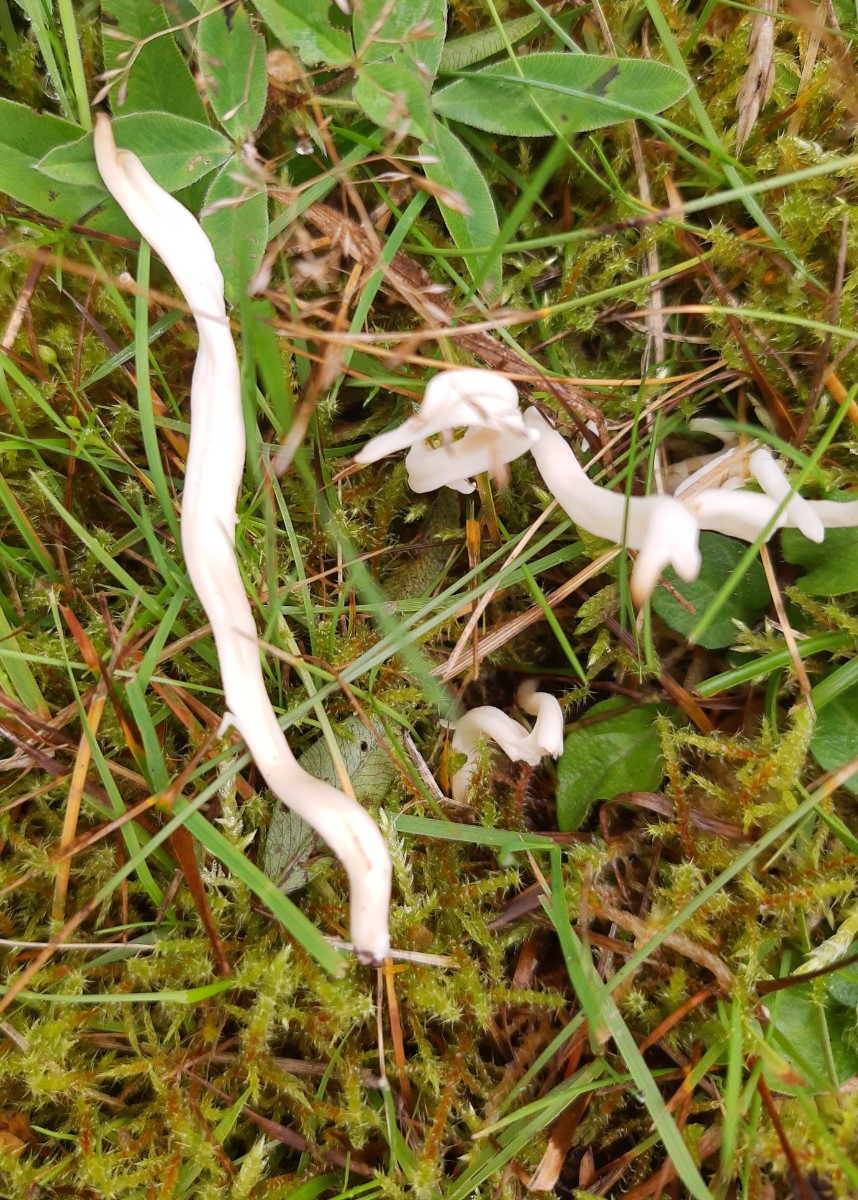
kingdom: Fungi
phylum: Basidiomycota
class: Agaricomycetes
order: Agaricales
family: Clavariaceae
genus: Clavaria
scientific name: Clavaria
